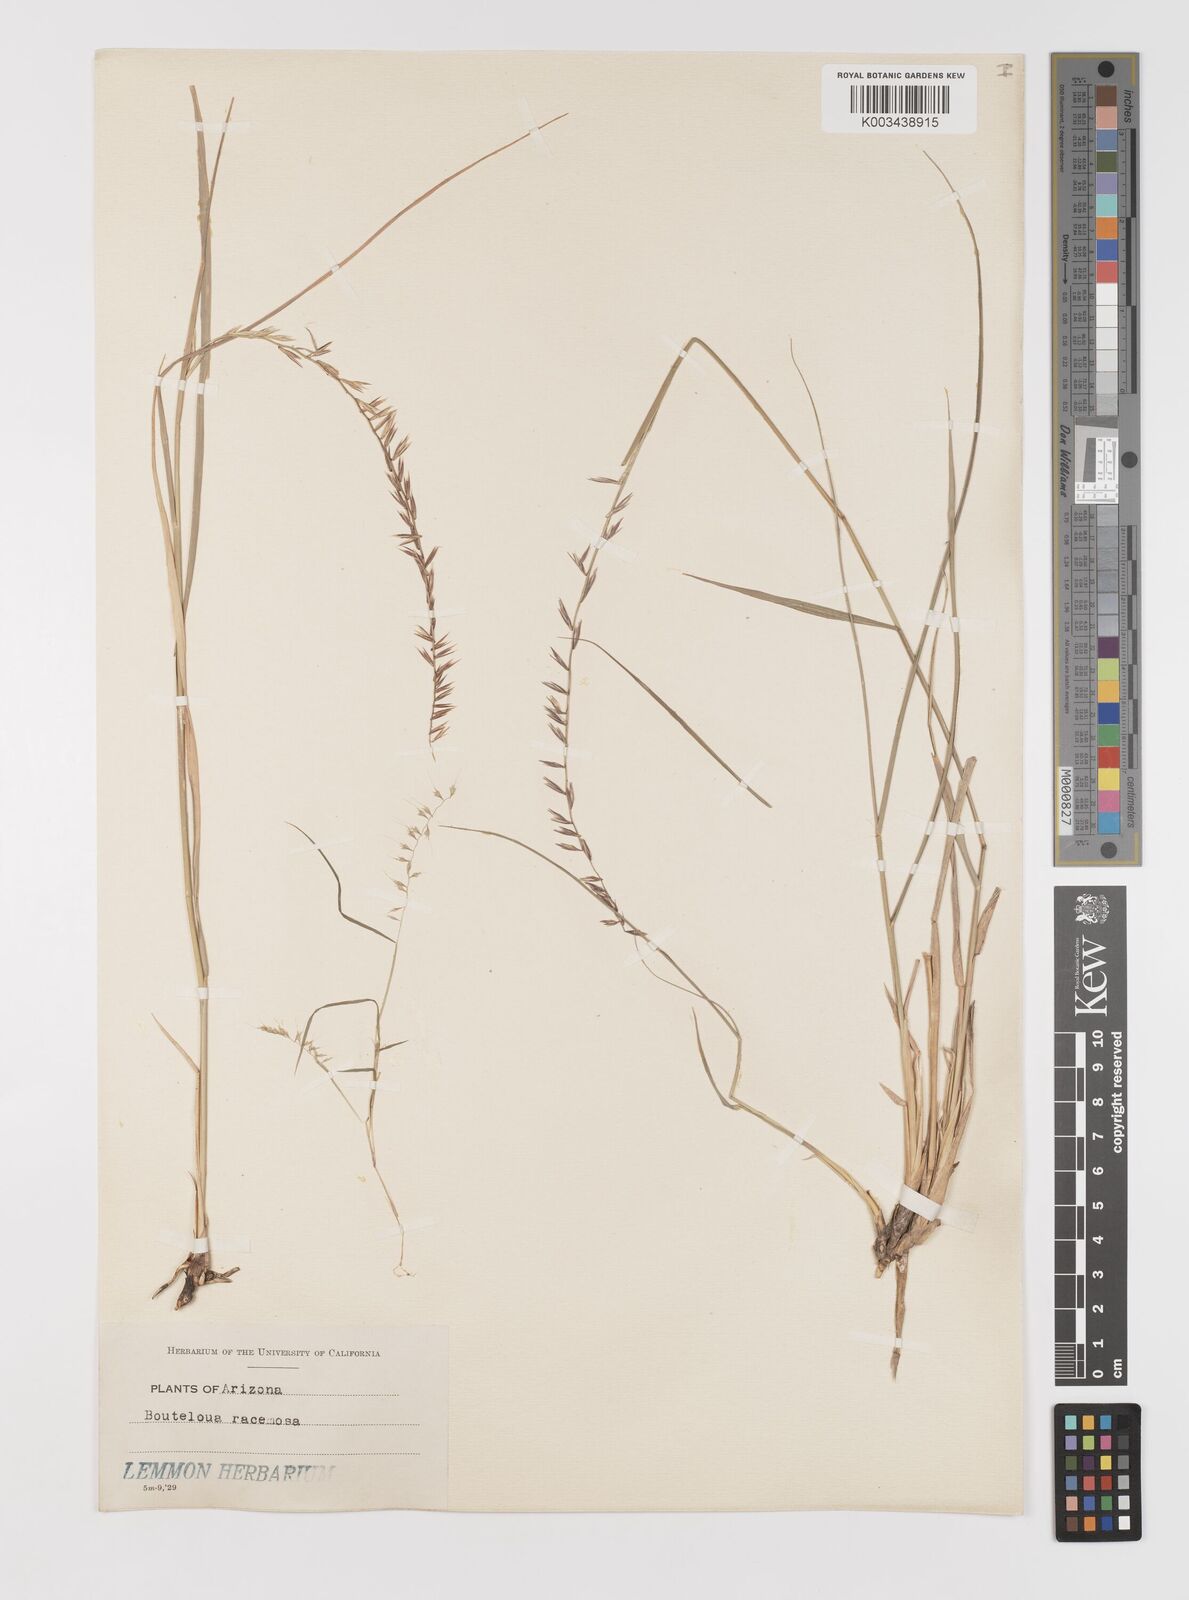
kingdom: Plantae
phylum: Tracheophyta
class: Liliopsida
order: Poales
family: Poaceae
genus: Bouteloua
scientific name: Bouteloua curtipendula
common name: Side-oats grama
